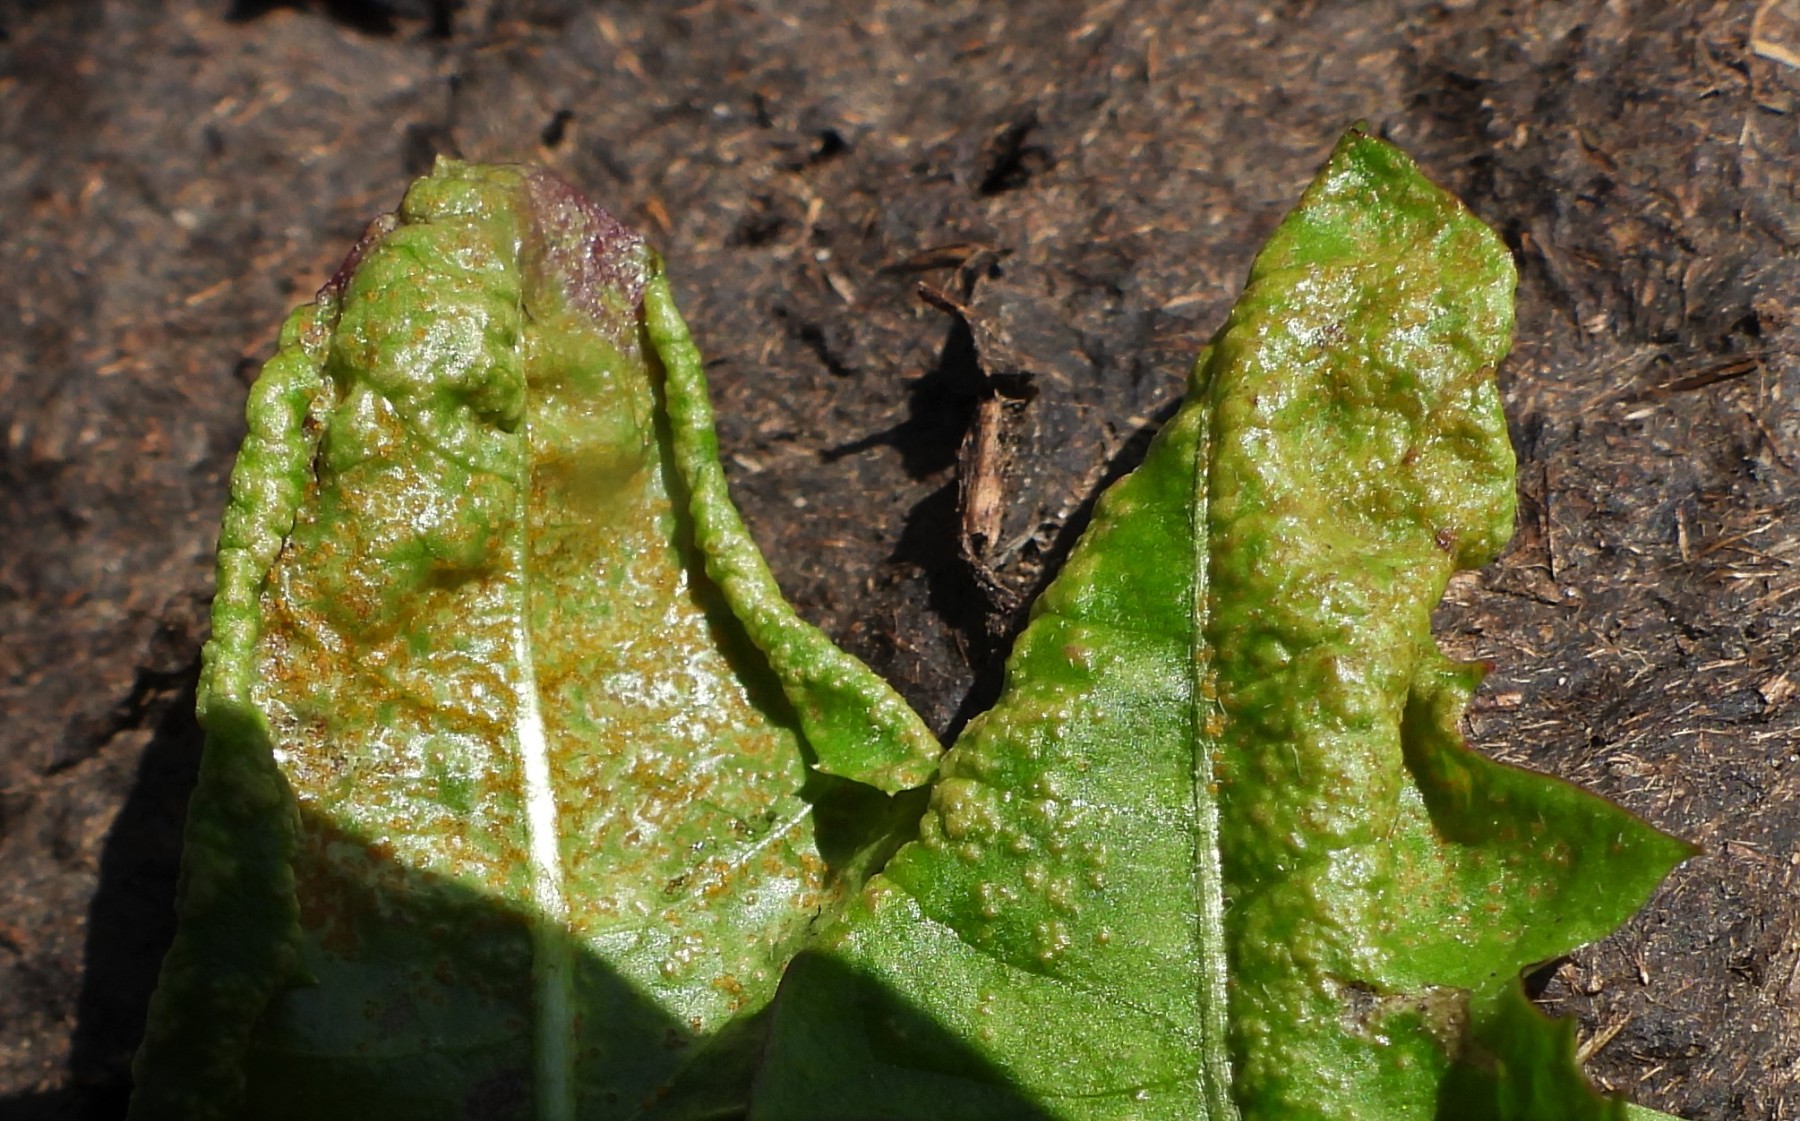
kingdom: Fungi
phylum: Chytridiomycota
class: Chytridiomycetes
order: Chytridiales
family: Synchytriaceae
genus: Synchytrium
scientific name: Synchytrium taraxaci
